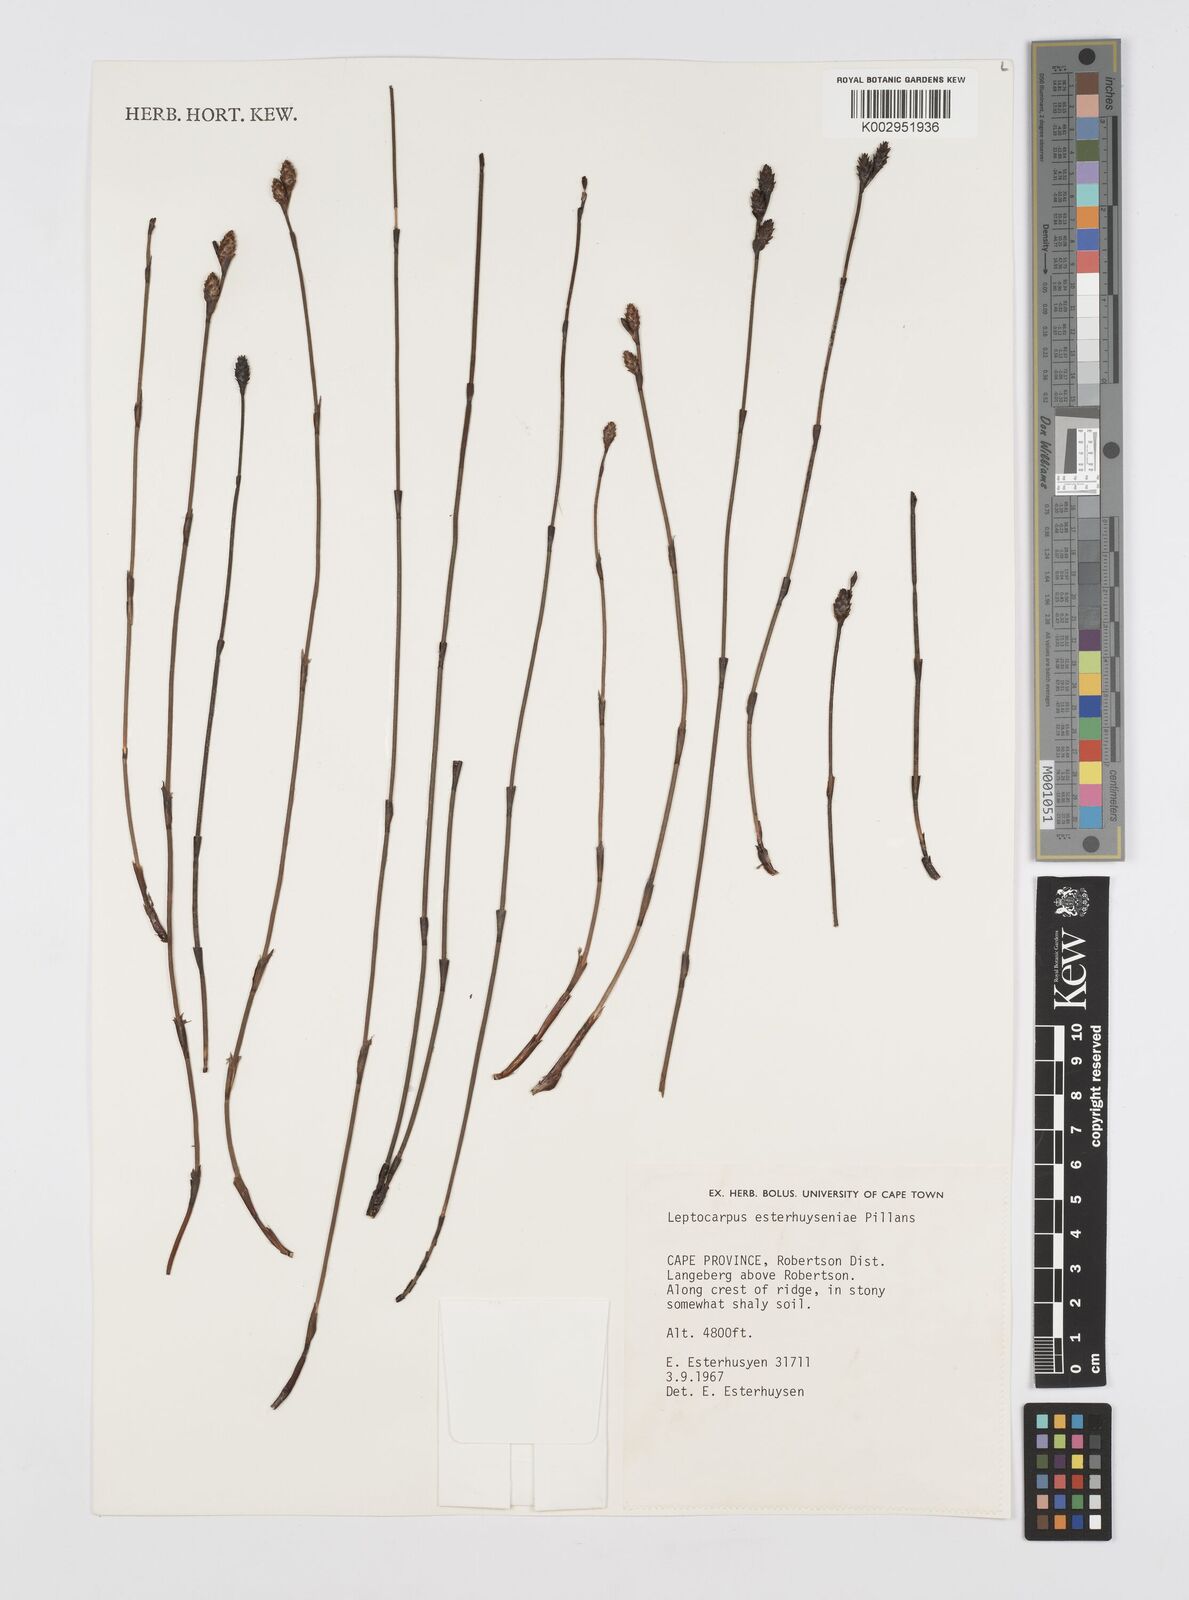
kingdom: Plantae
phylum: Tracheophyta
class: Liliopsida
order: Poales
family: Restionaceae
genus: Restio
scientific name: Restio esterhuyseniae
